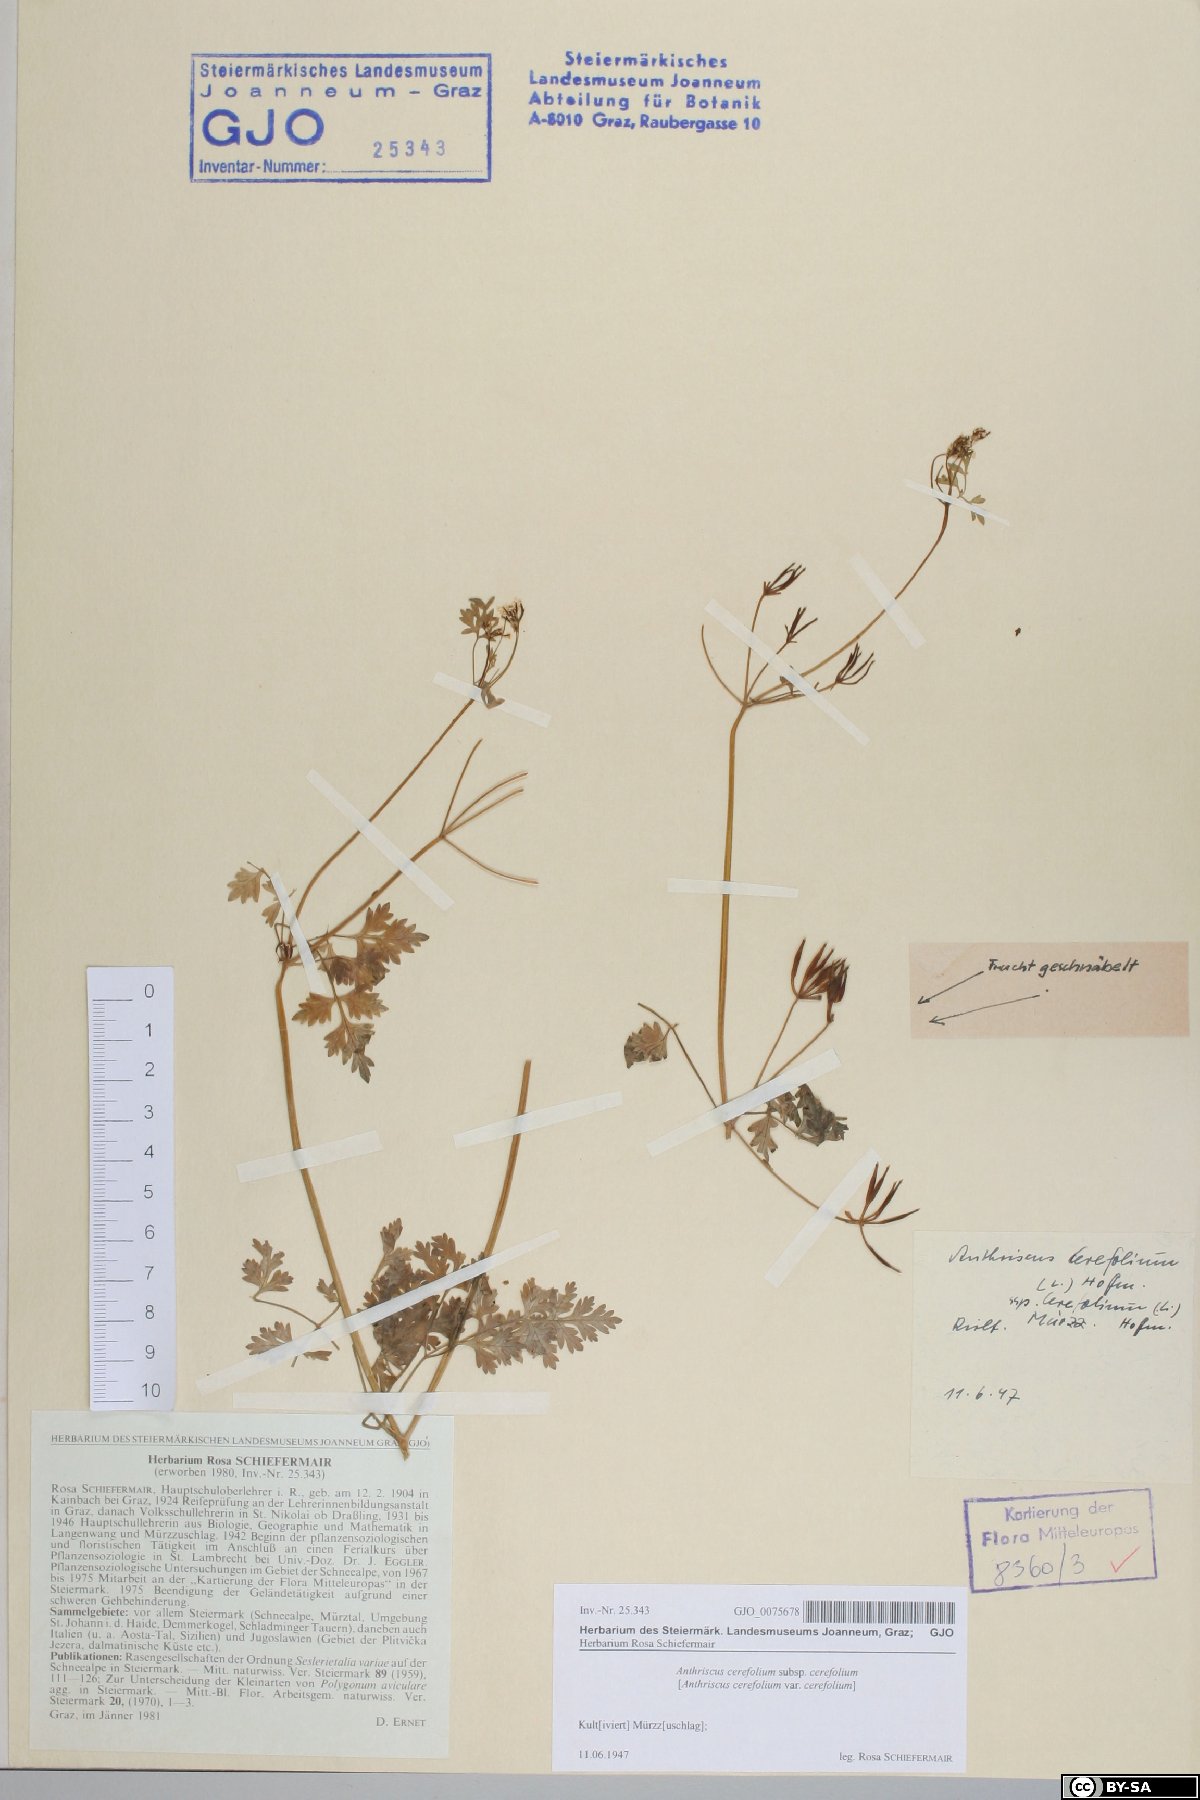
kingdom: Plantae
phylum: Tracheophyta
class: Magnoliopsida
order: Apiales
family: Apiaceae
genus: Anthriscus
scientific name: Anthriscus cerefolium
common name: Garden chervil
